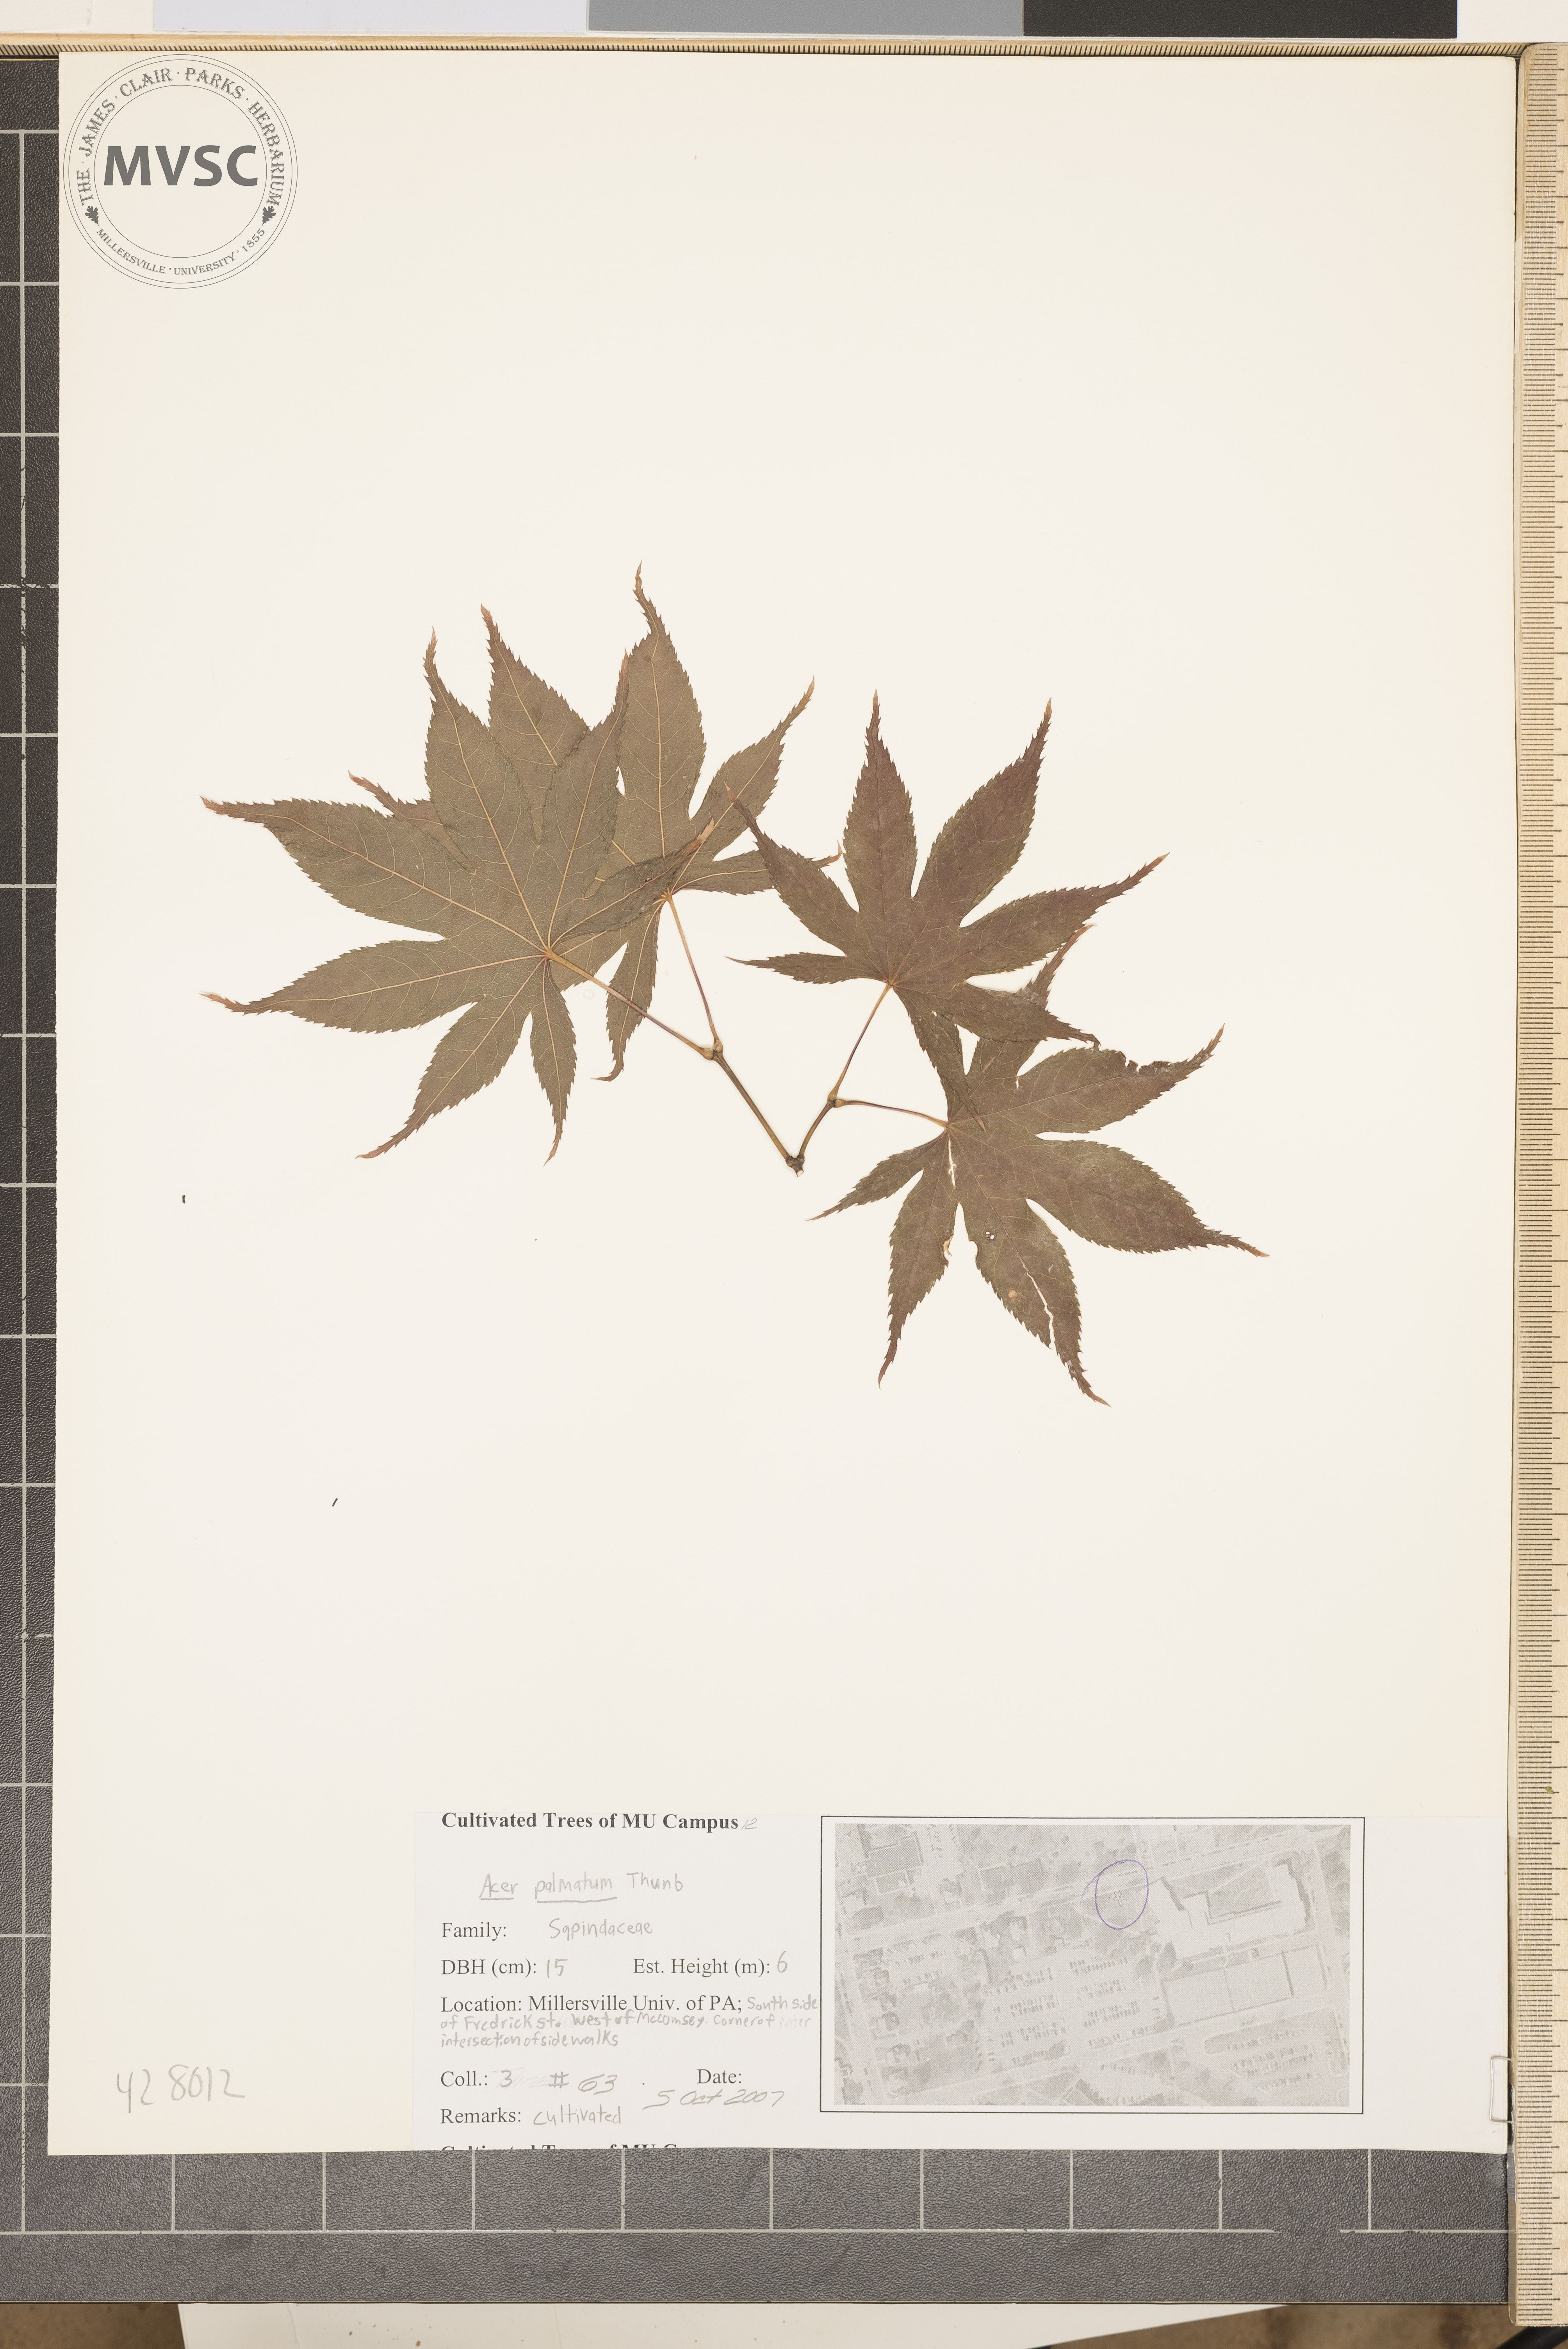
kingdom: Plantae
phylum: Tracheophyta
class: Magnoliopsida
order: Sapindales
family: Sapindaceae
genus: Acer
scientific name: Acer palmatum
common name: Japanese Maple
